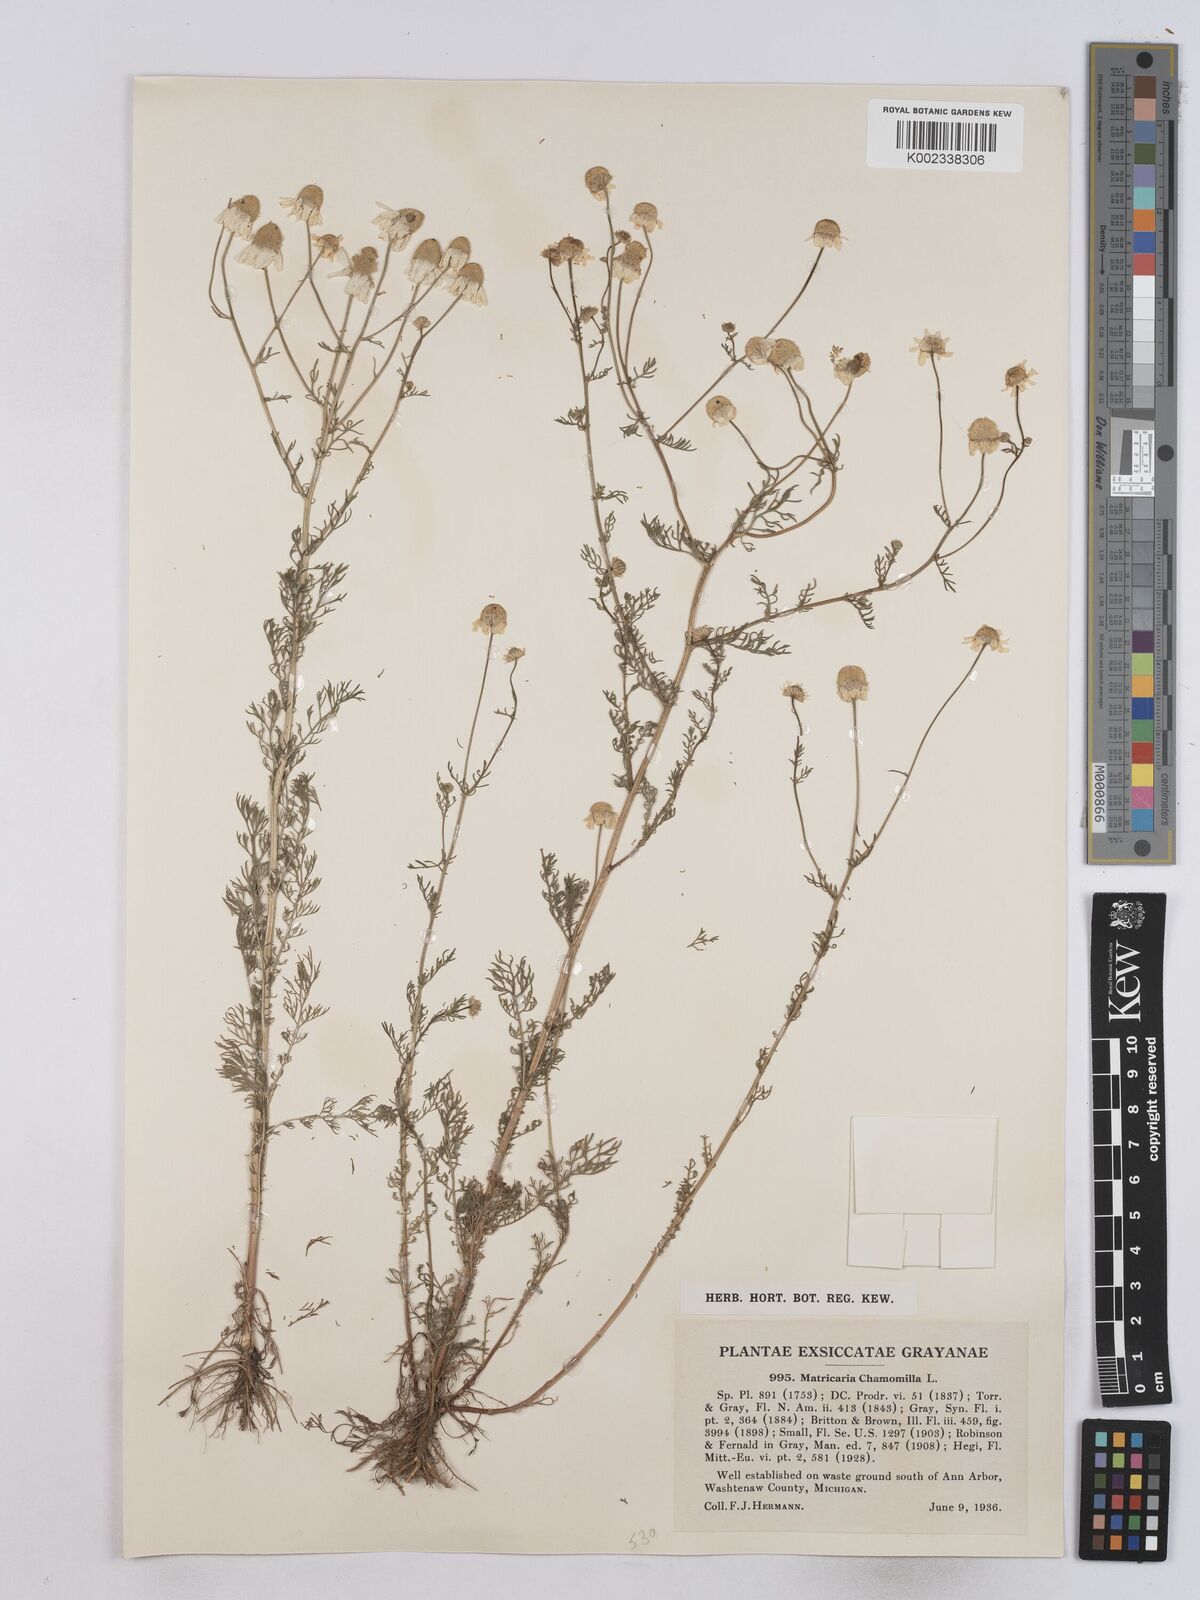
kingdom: Plantae
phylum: Tracheophyta
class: Magnoliopsida
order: Asterales
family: Asteraceae
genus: Matricaria
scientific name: Matricaria chamomilla
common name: Scented mayweed
